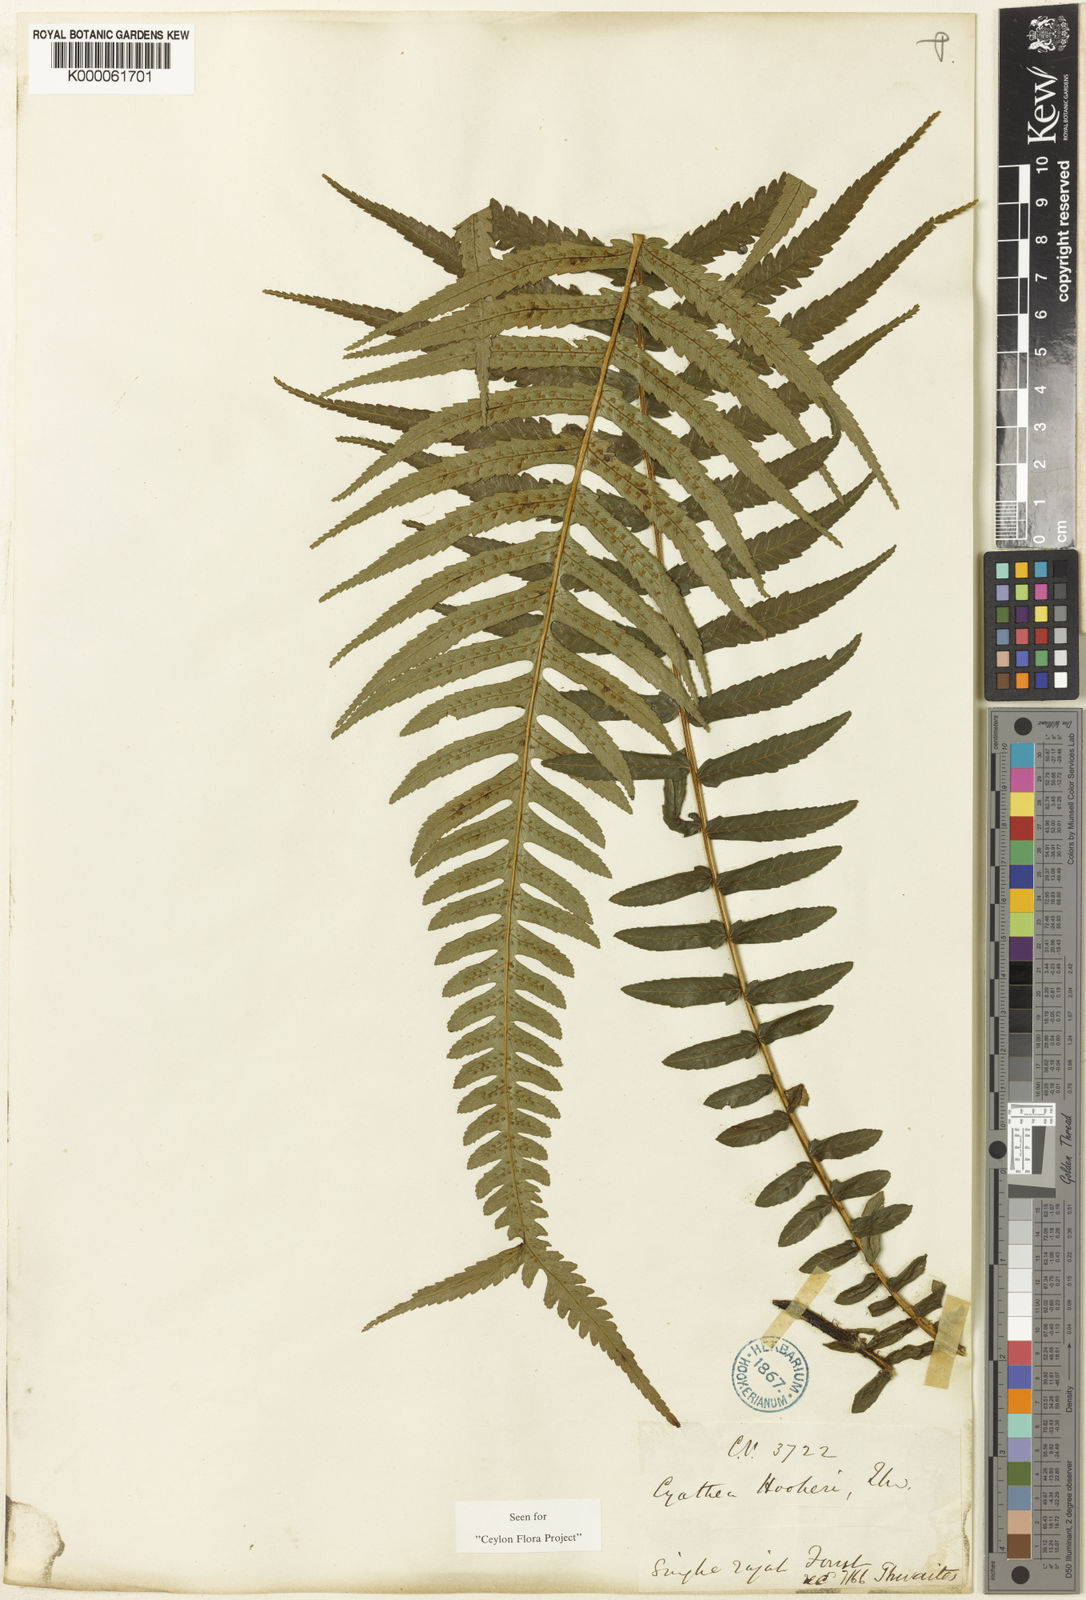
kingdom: Plantae
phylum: Tracheophyta
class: Polypodiopsida
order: Cyatheales
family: Cyatheaceae
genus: Alsophila
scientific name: Alsophila hookeri
